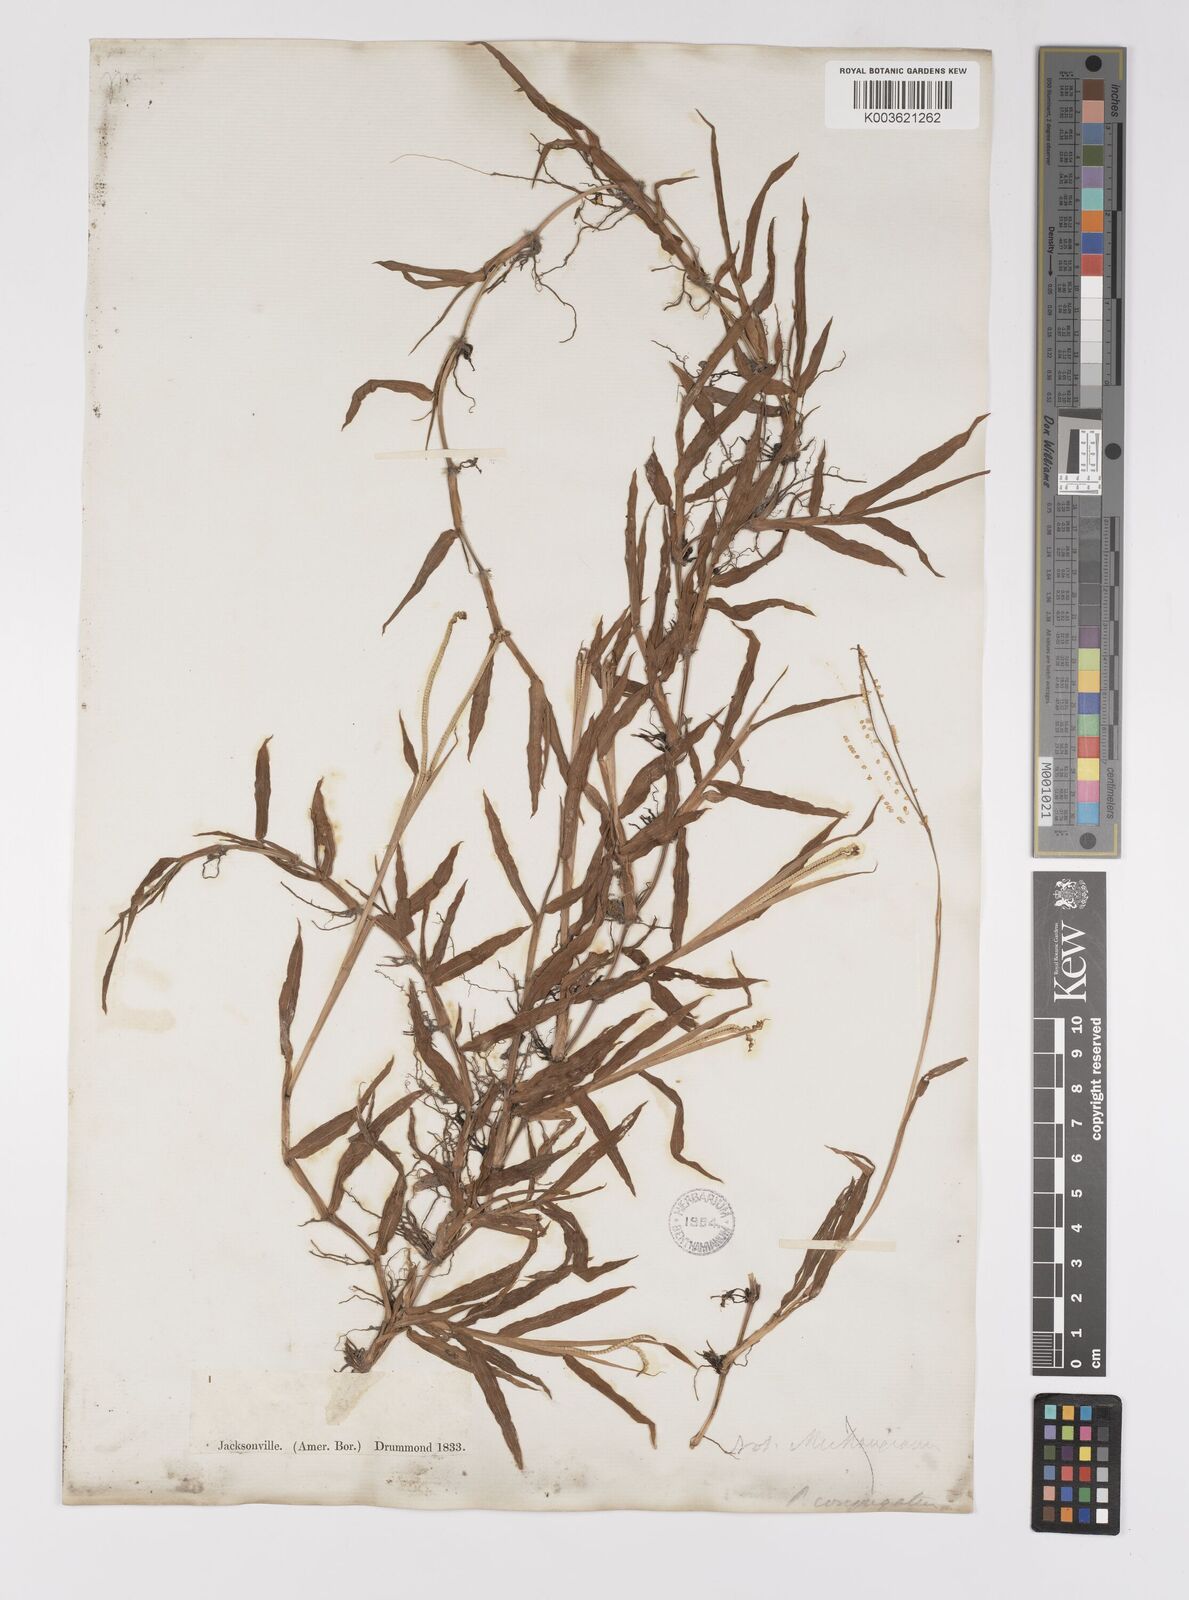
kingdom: Plantae
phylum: Tracheophyta
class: Liliopsida
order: Poales
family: Poaceae
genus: Paspalum
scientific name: Paspalum conjugatum
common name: Hilograss
